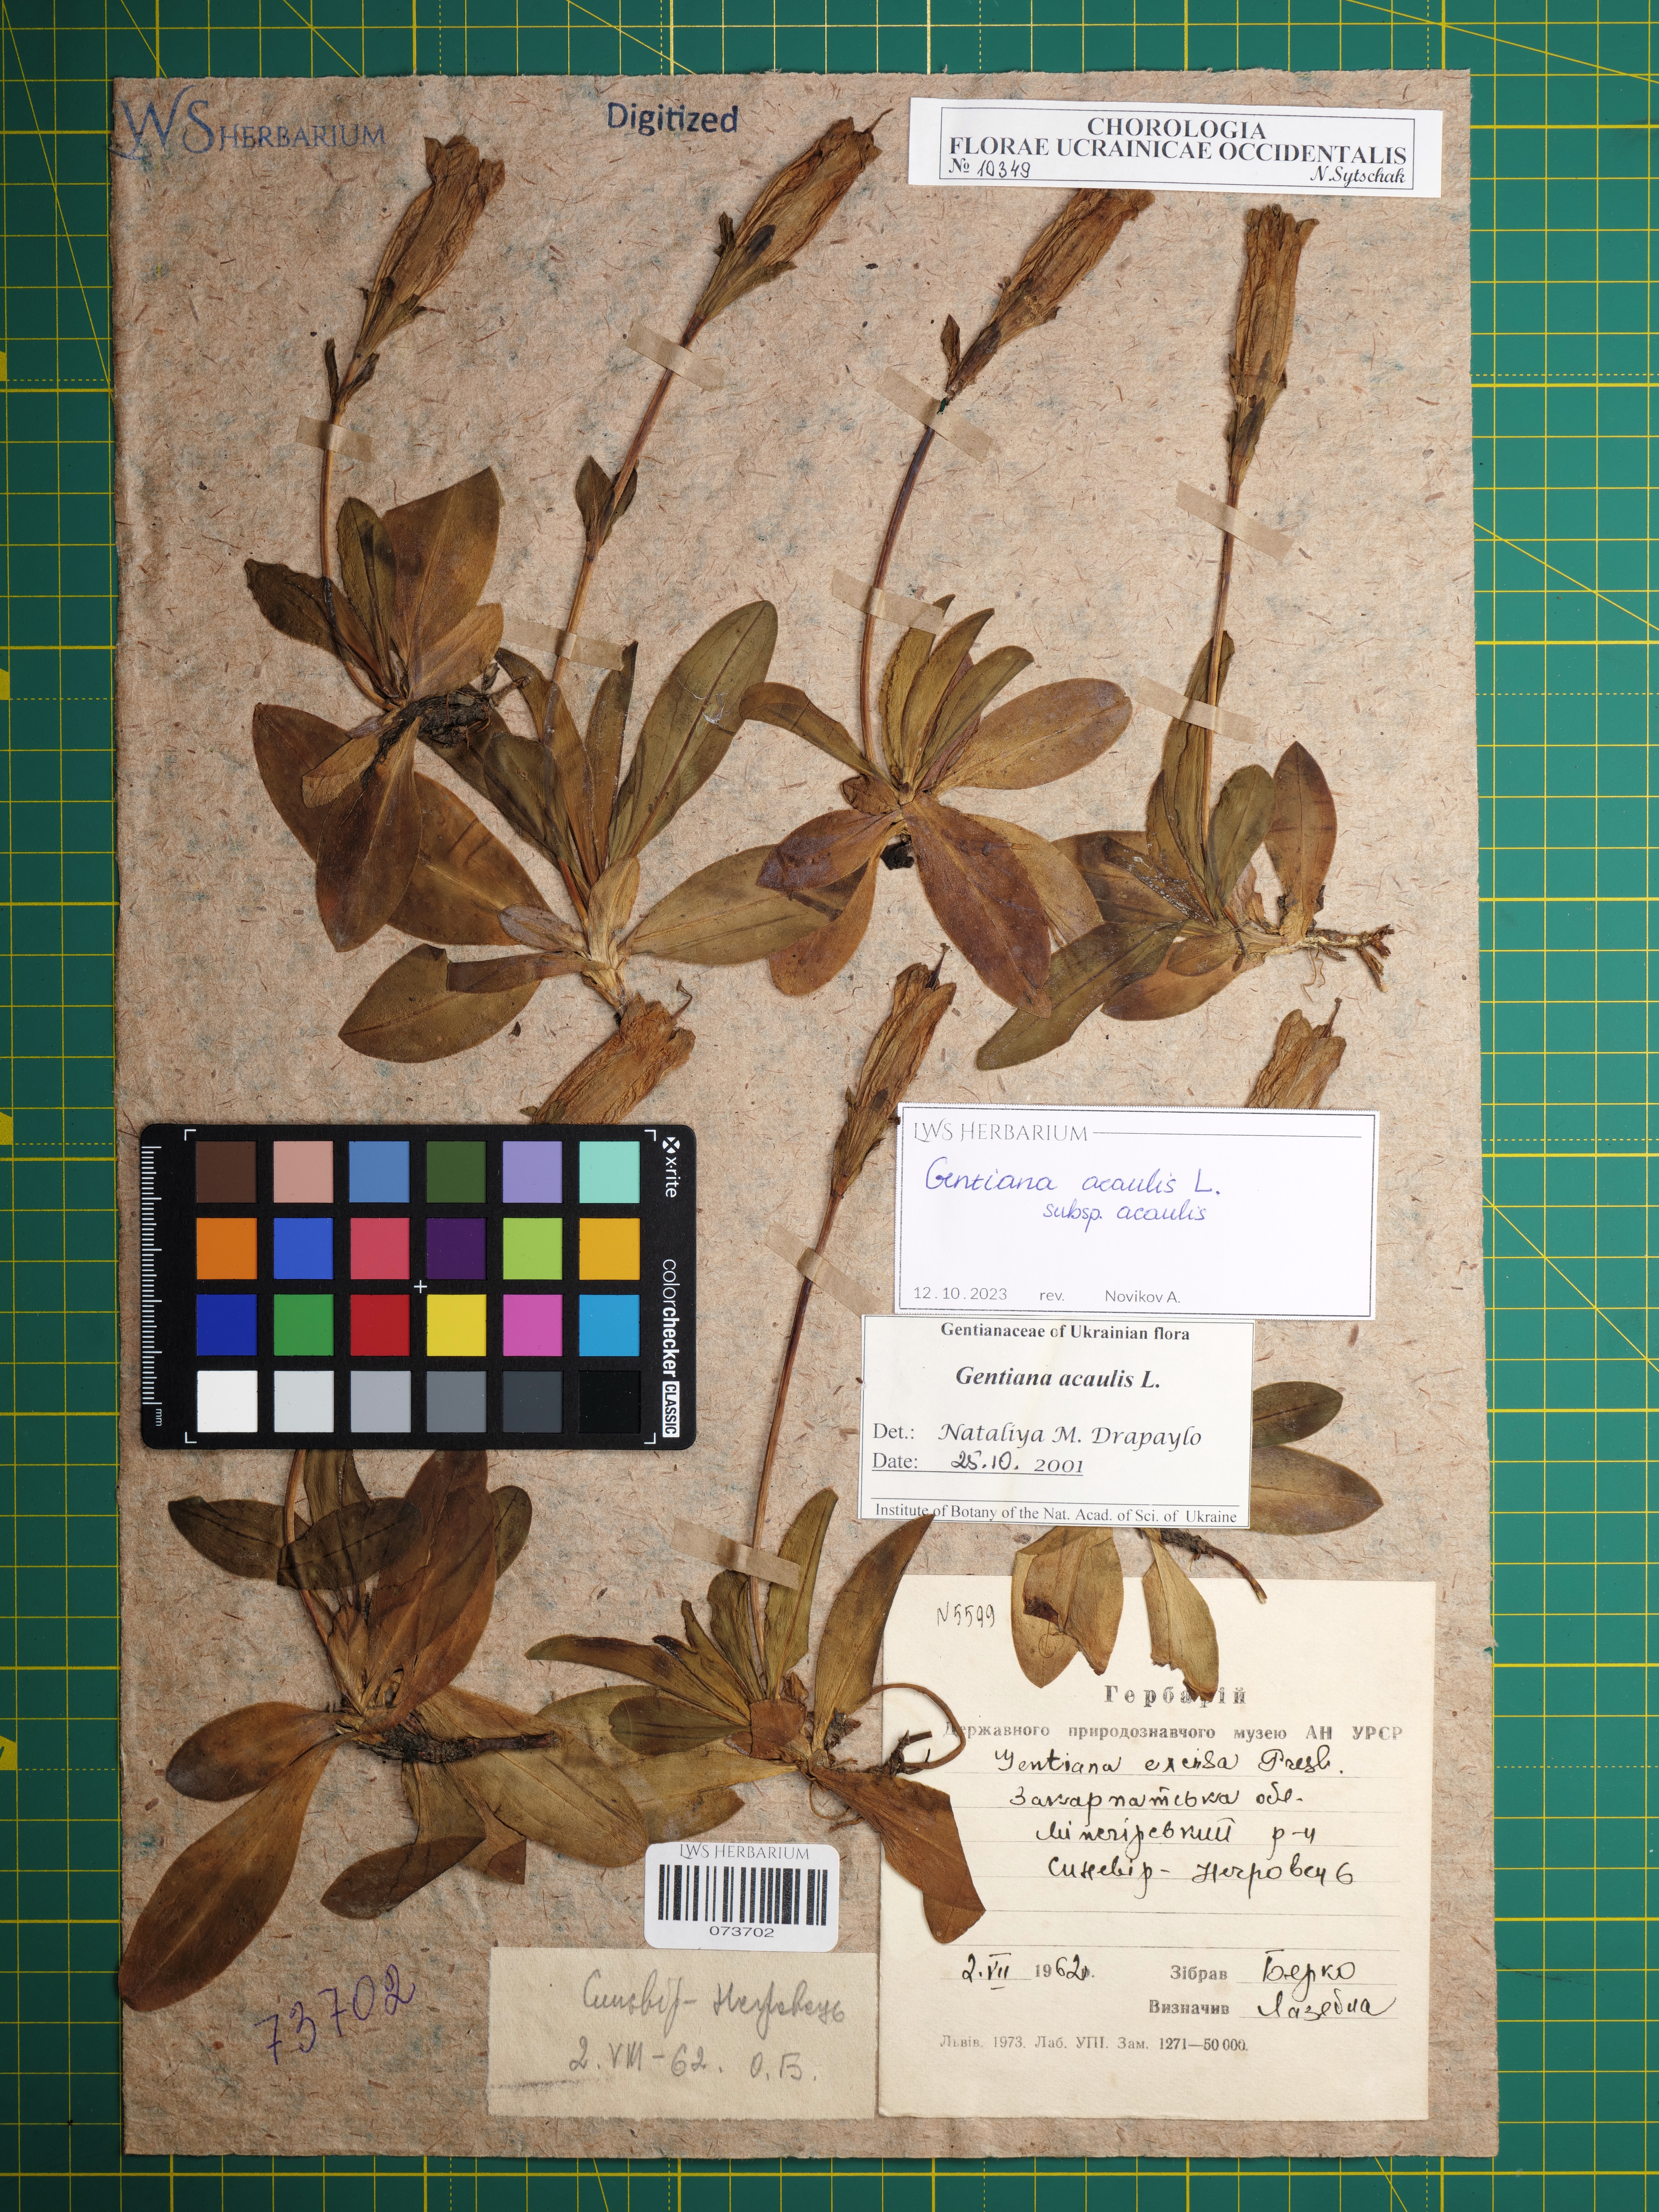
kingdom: Plantae
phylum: Tracheophyta
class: Magnoliopsida
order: Gentianales
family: Gentianaceae
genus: Gentiana
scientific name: Gentiana acaulis
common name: Trumpet gentian
